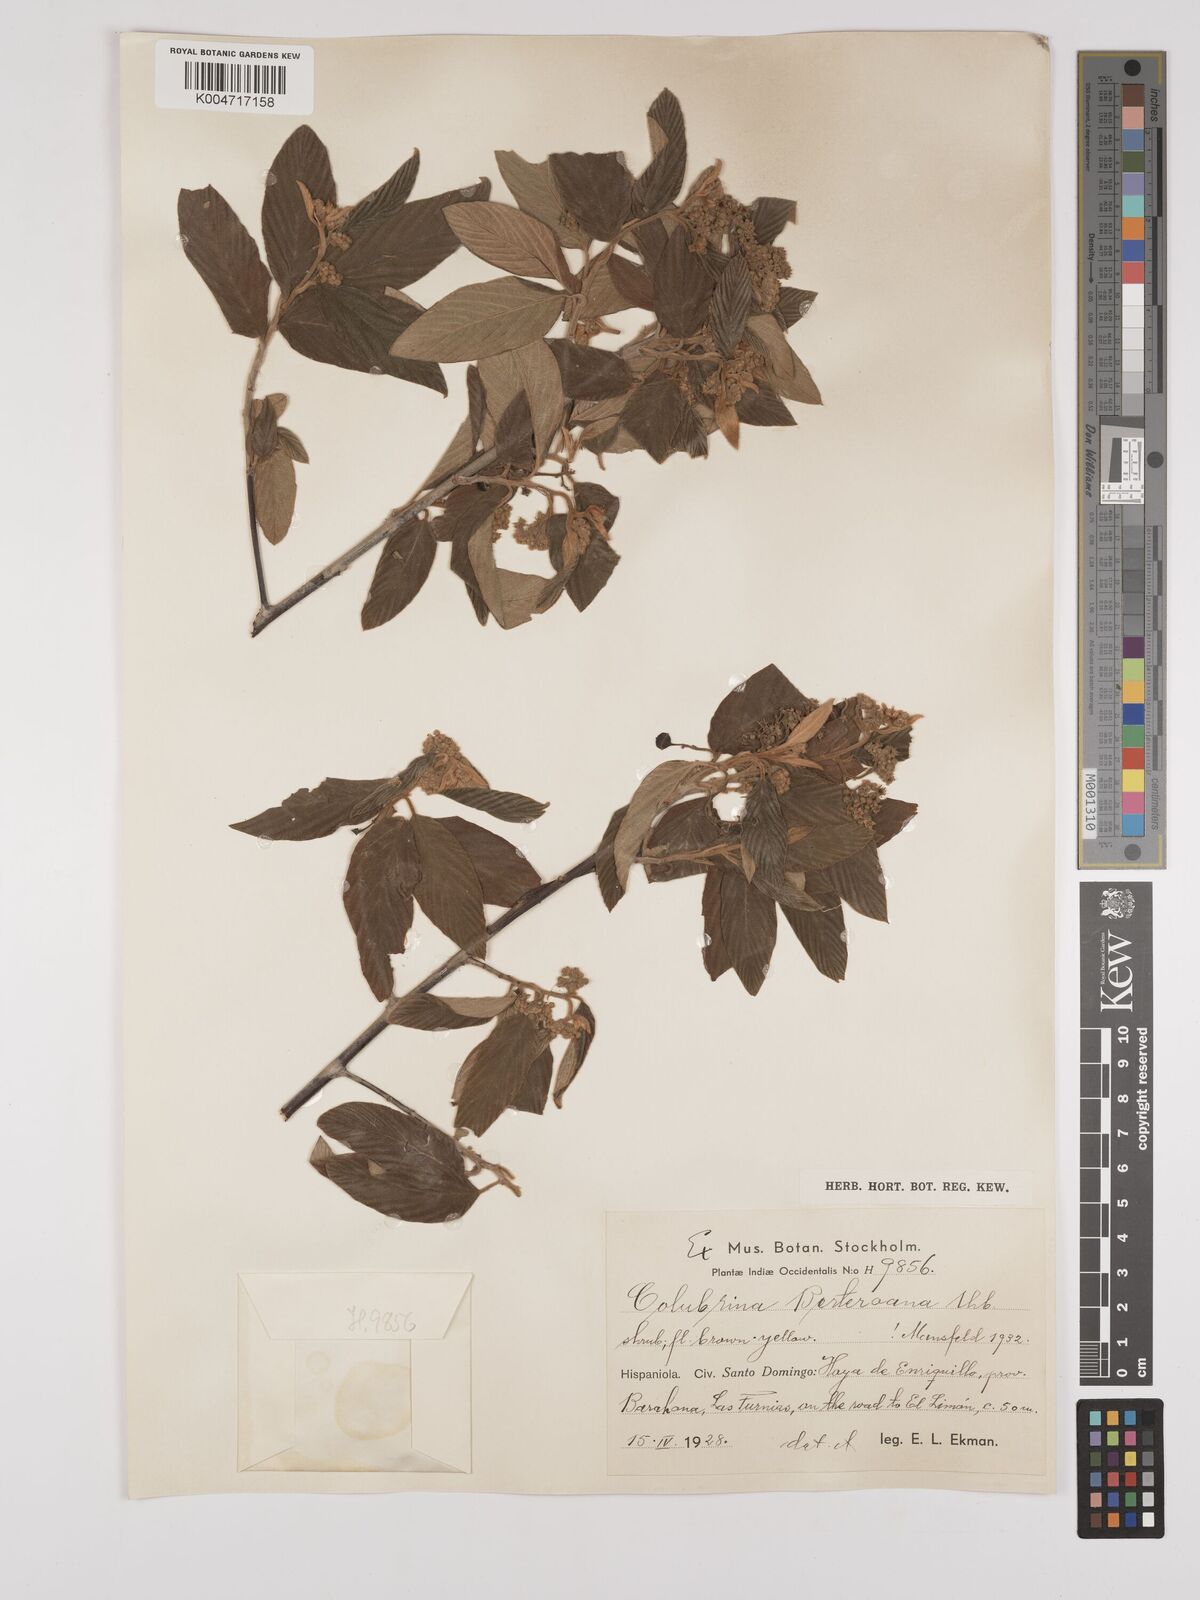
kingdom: Plantae
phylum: Tracheophyta
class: Magnoliopsida
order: Rosales
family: Rhamnaceae
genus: Colubrina
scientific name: Colubrina berteroana
